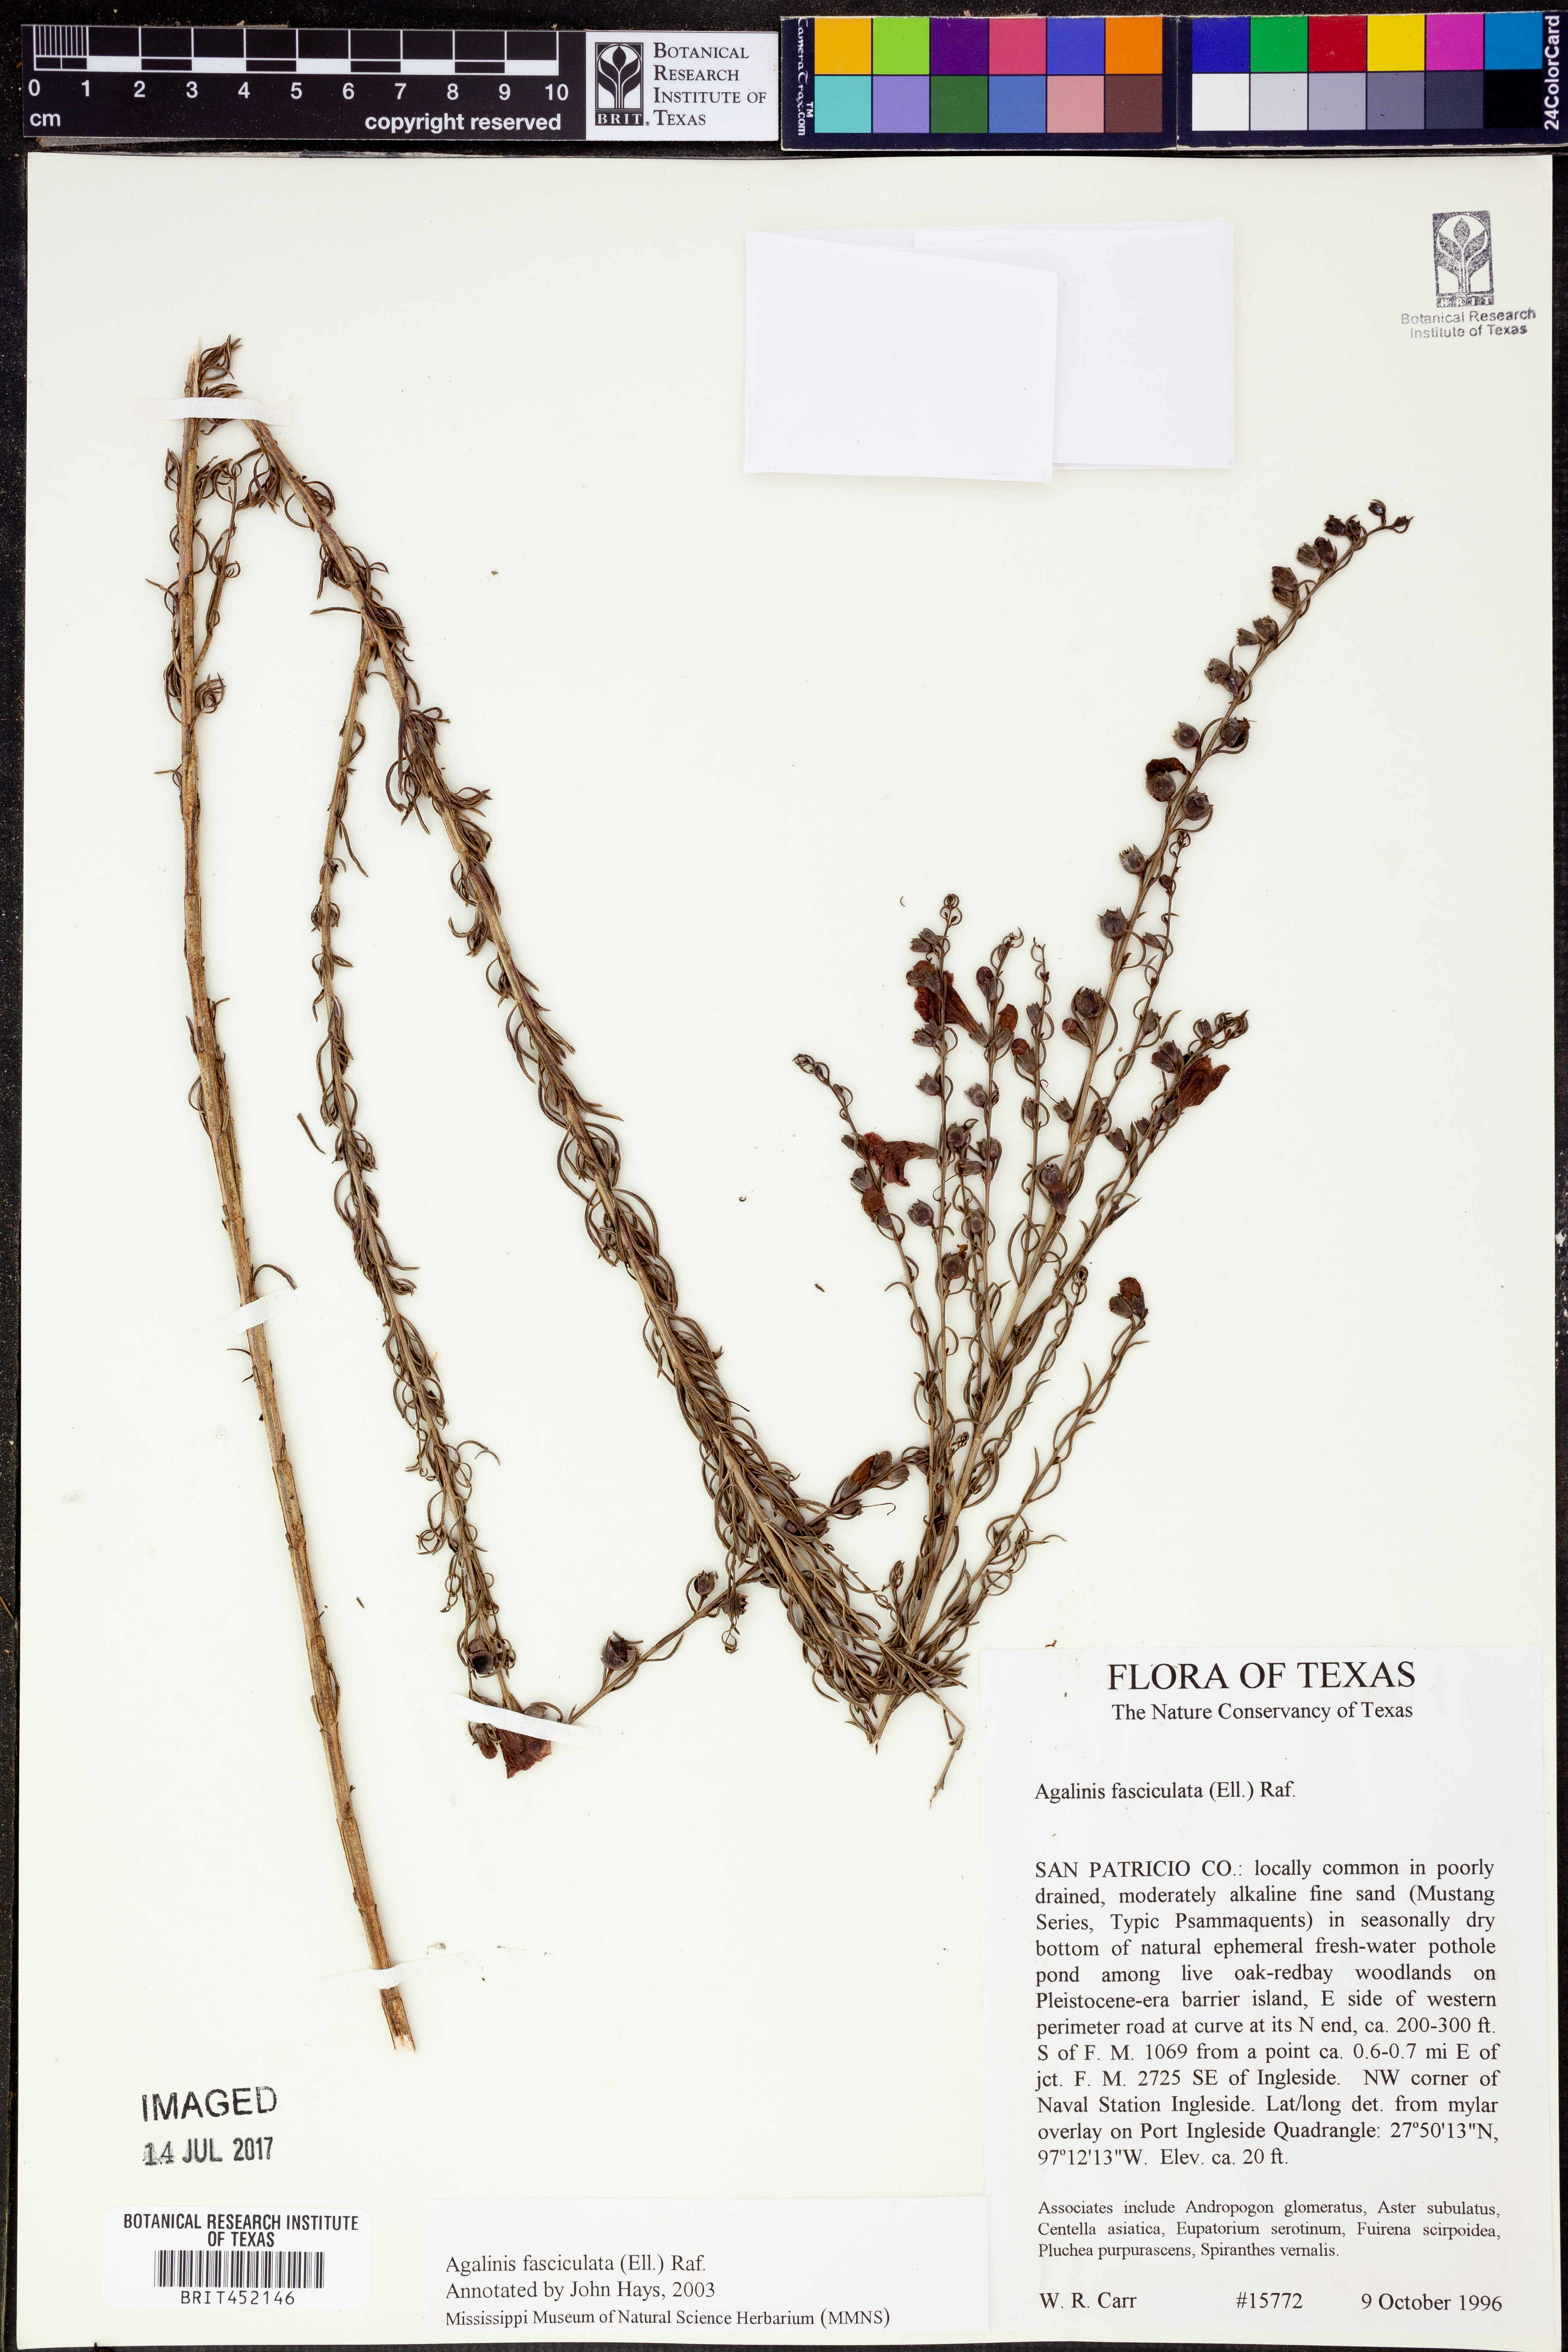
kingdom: Plantae
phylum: Tracheophyta
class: Magnoliopsida
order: Lamiales
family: Orobanchaceae
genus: Agalinis
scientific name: Agalinis fasciculata
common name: Beach false foxglove
